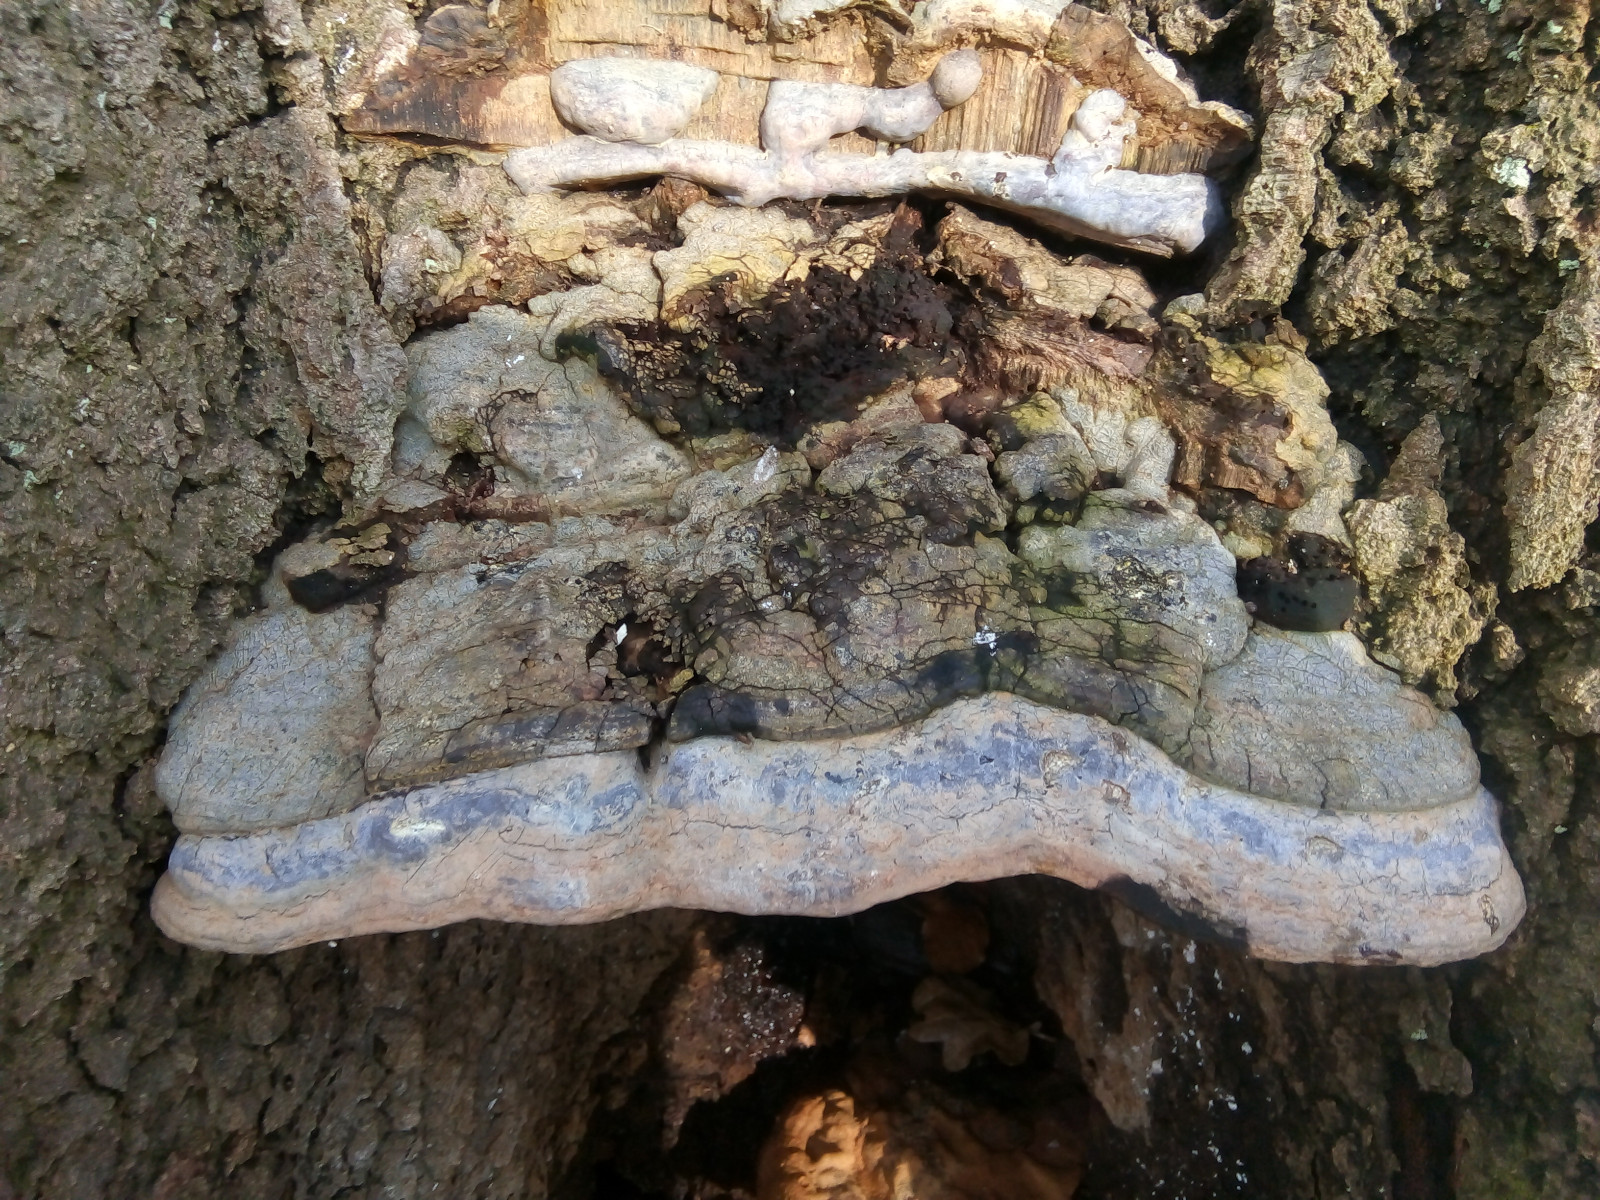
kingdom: Fungi
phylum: Basidiomycota
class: Agaricomycetes
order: Polyporales
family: Polyporaceae
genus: Ganoderma
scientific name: Ganoderma pfeifferi
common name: kobberrød lakporesvamp
